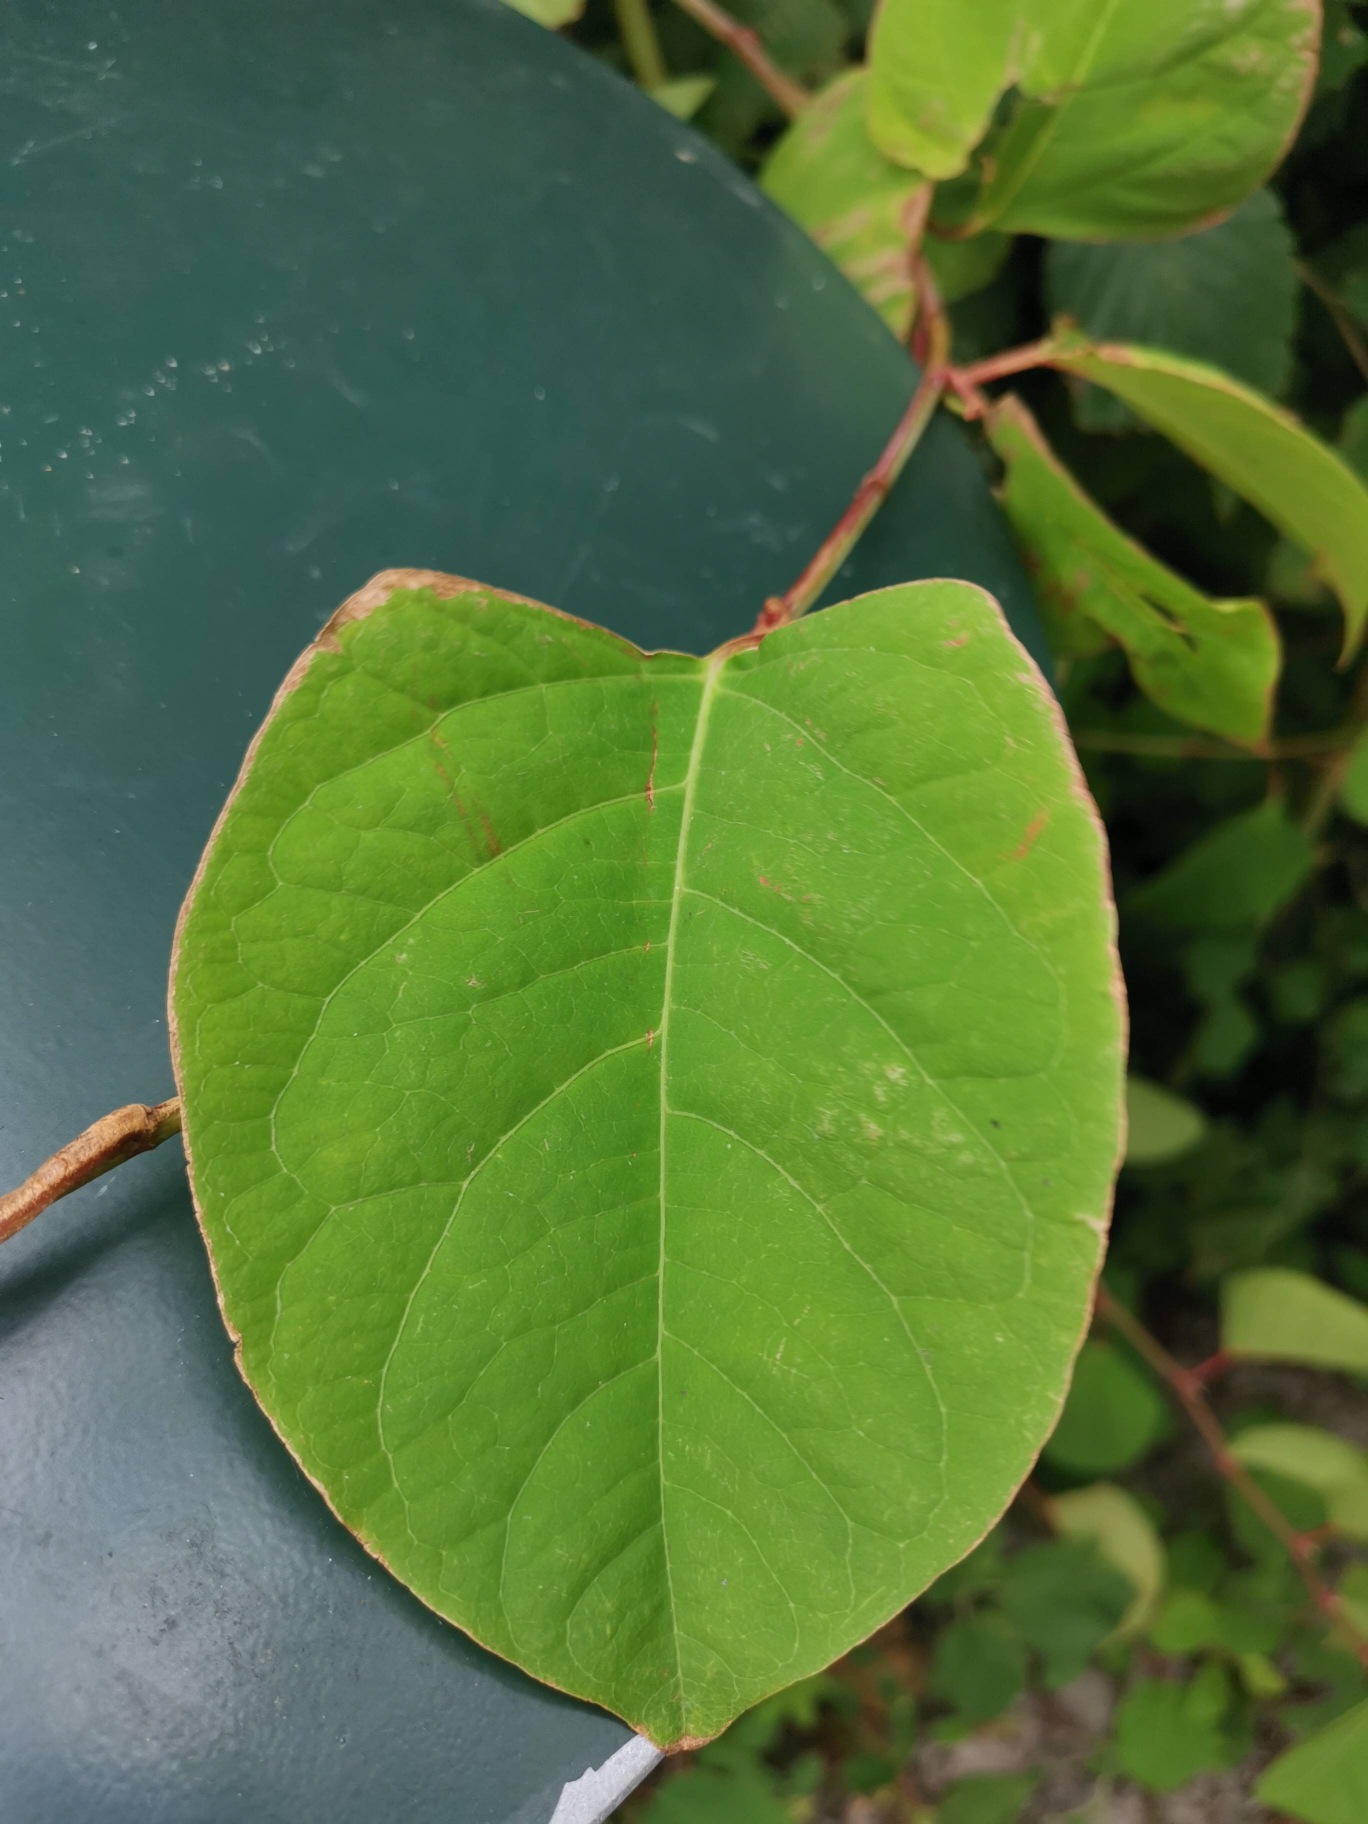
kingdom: Plantae
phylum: Tracheophyta
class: Magnoliopsida
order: Caryophyllales
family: Polygonaceae
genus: Reynoutria
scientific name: Reynoutria japonica
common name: Japan-pileurt
